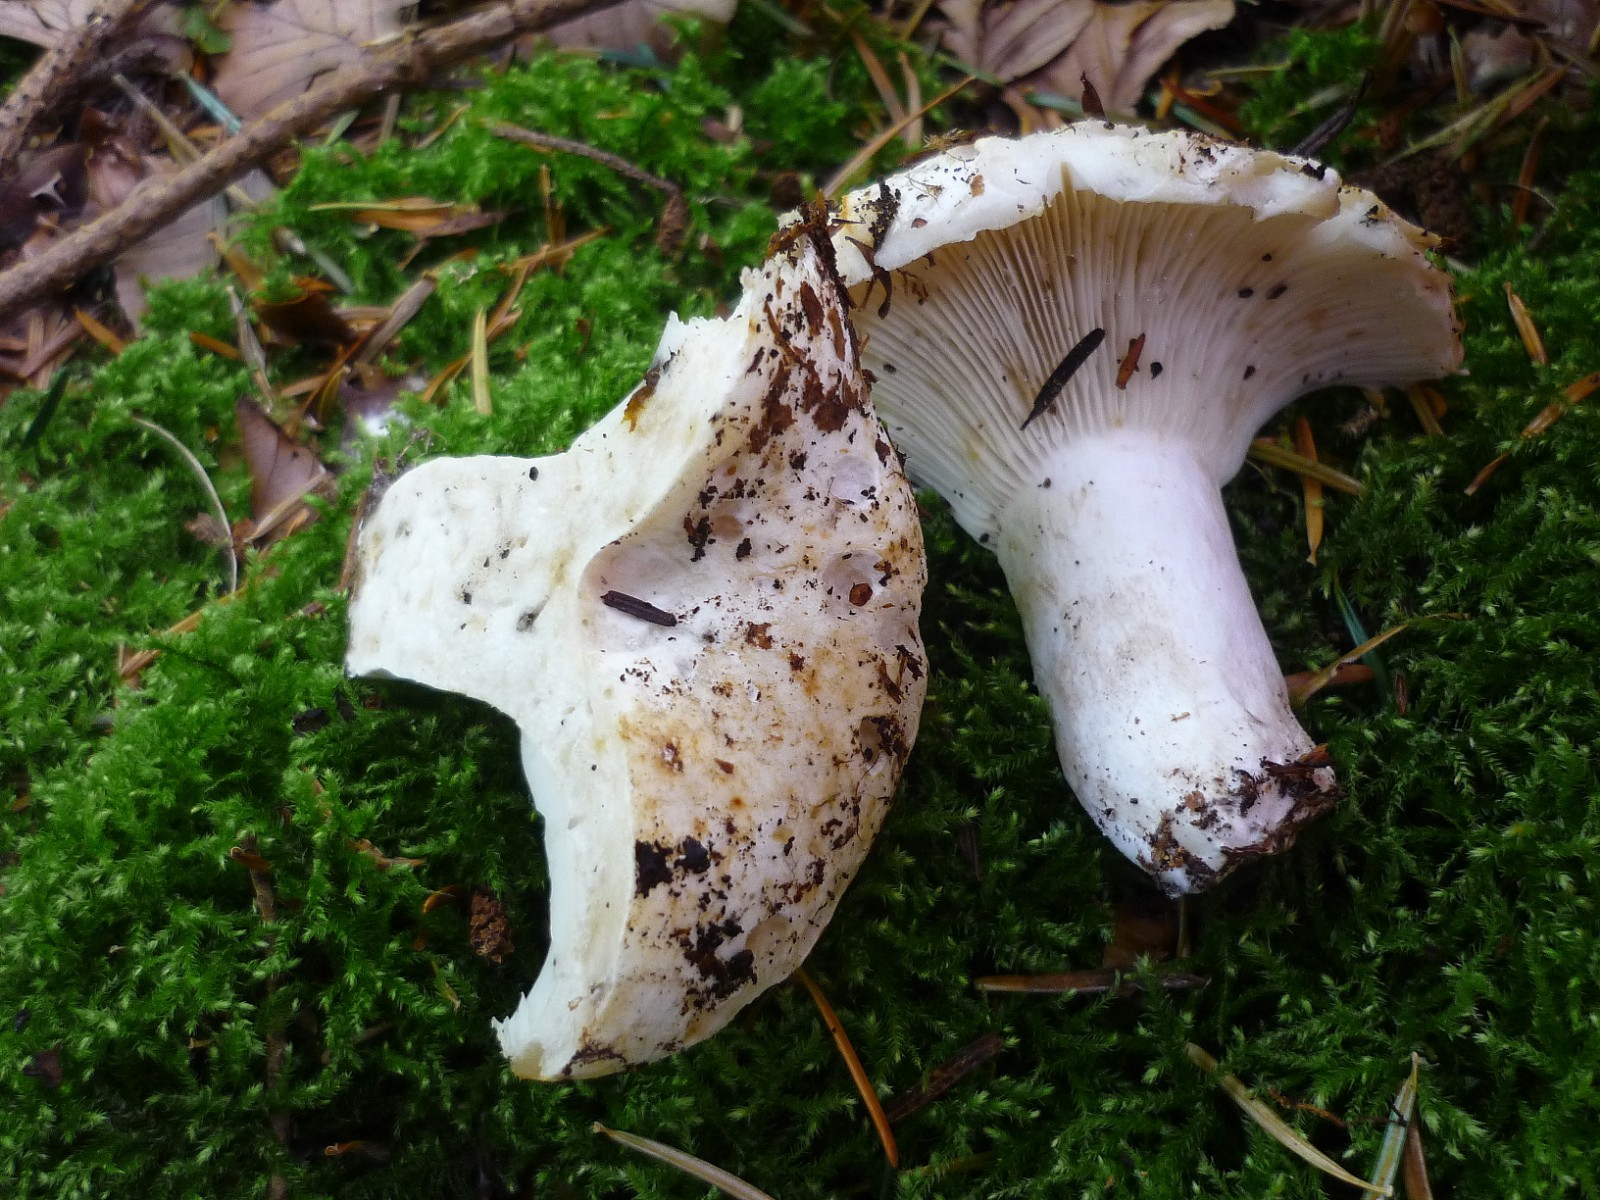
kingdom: Fungi
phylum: Basidiomycota
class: Agaricomycetes
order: Russulales
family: Russulaceae
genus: Russula
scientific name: Russula delica
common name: almindelig tragt-skørhat
